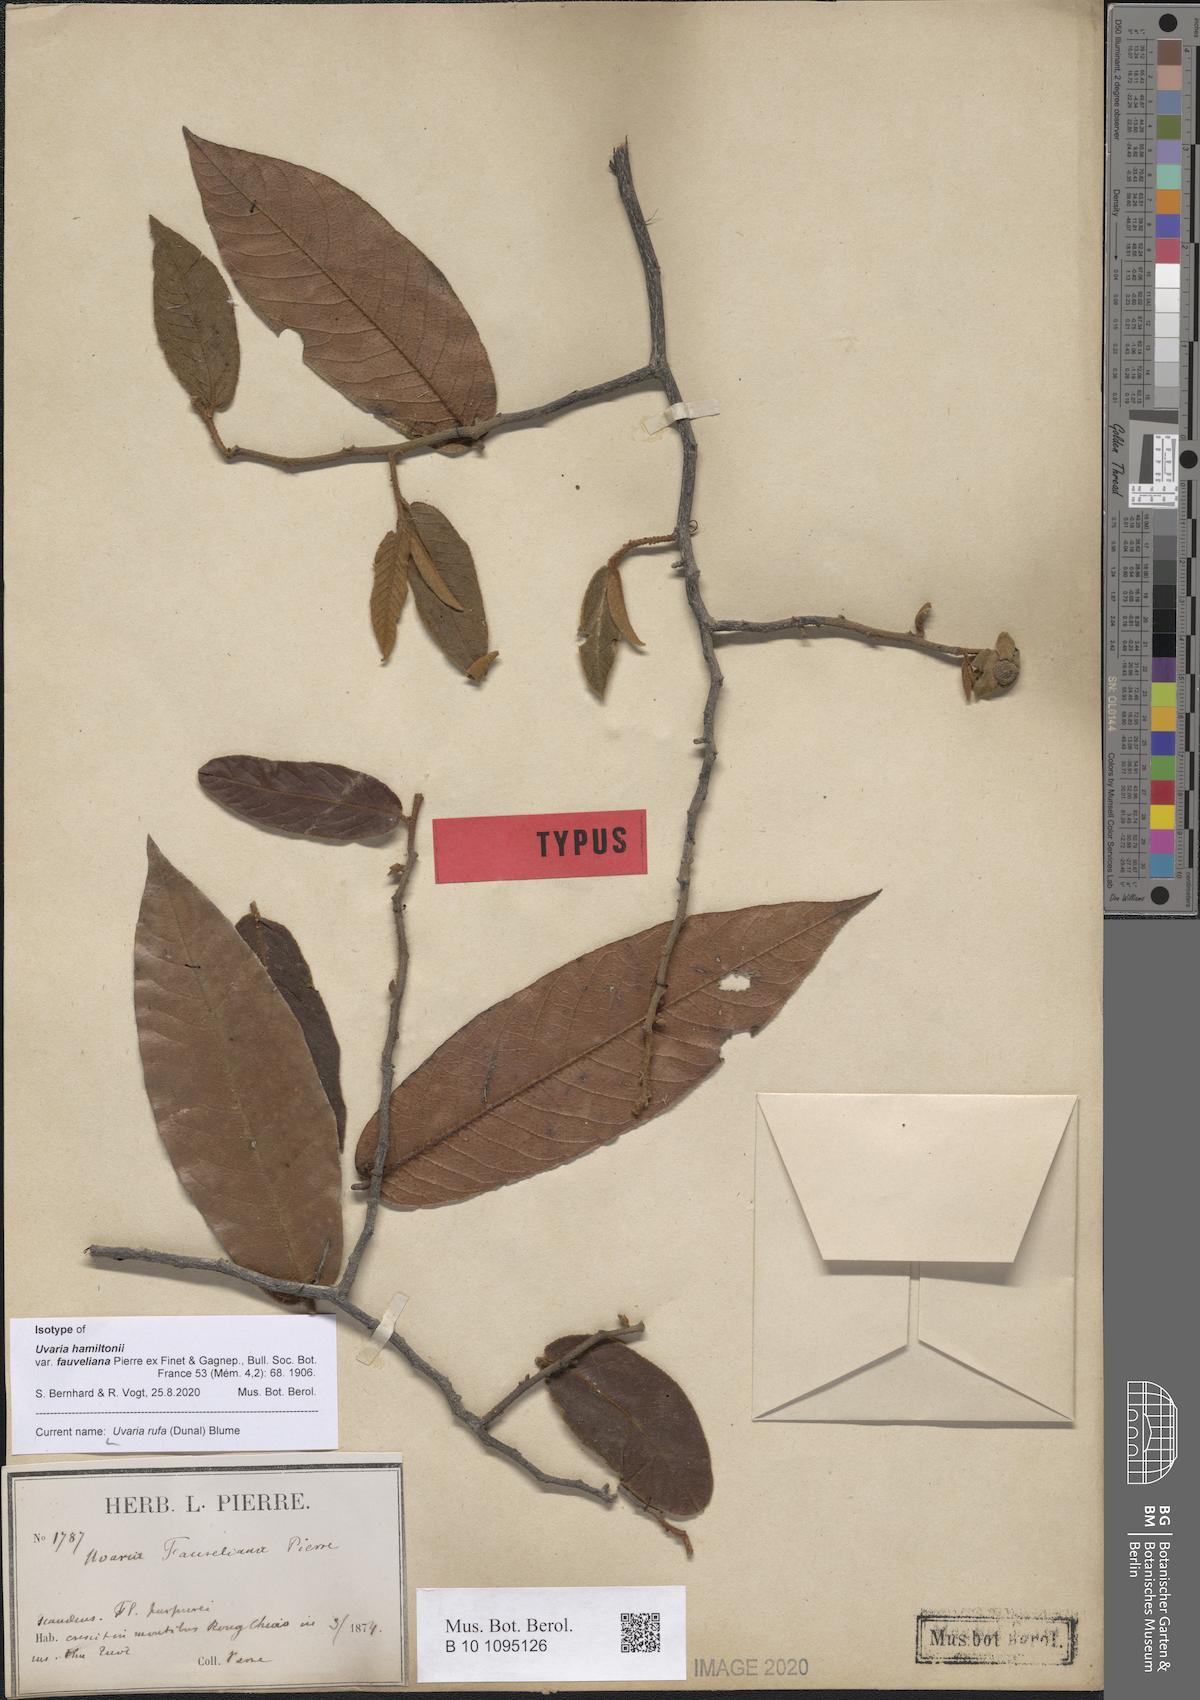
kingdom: Plantae
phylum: Tracheophyta
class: Magnoliopsida
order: Magnoliales
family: Annonaceae
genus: Uvaria
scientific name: Uvaria rufa
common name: Torres strait scrambler
